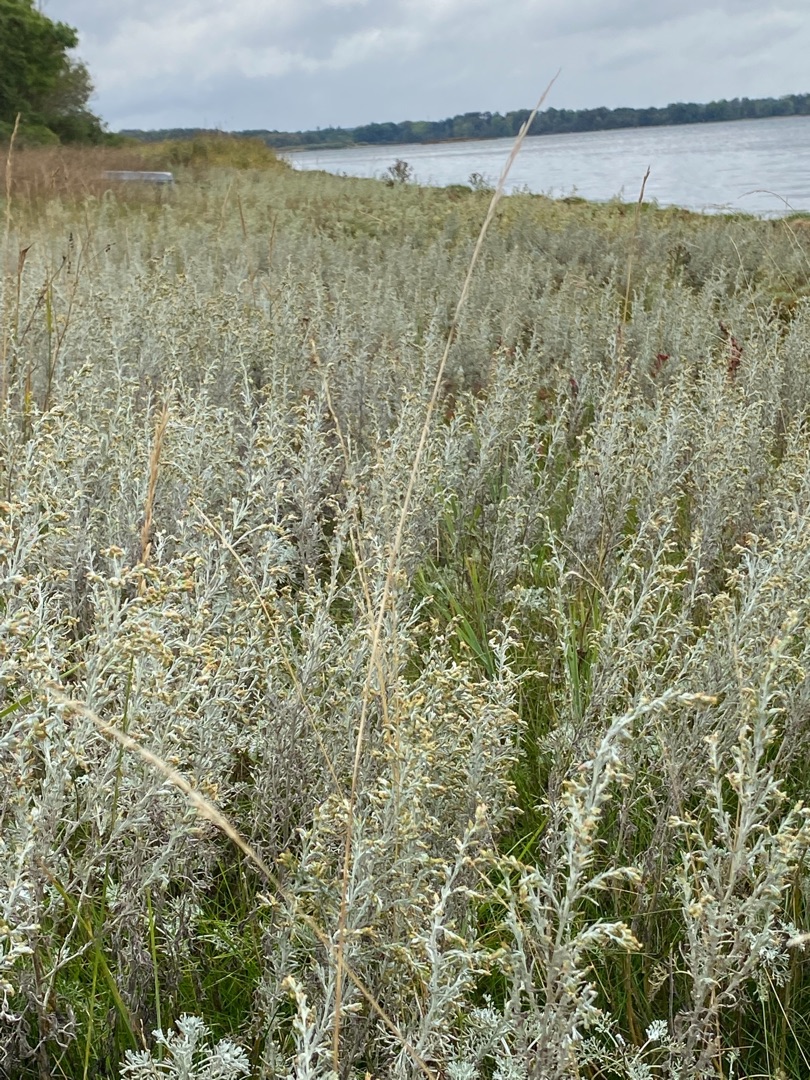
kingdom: Plantae
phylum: Tracheophyta
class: Magnoliopsida
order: Asterales
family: Asteraceae
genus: Artemisia
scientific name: Artemisia maritima
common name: Strandmalurt
